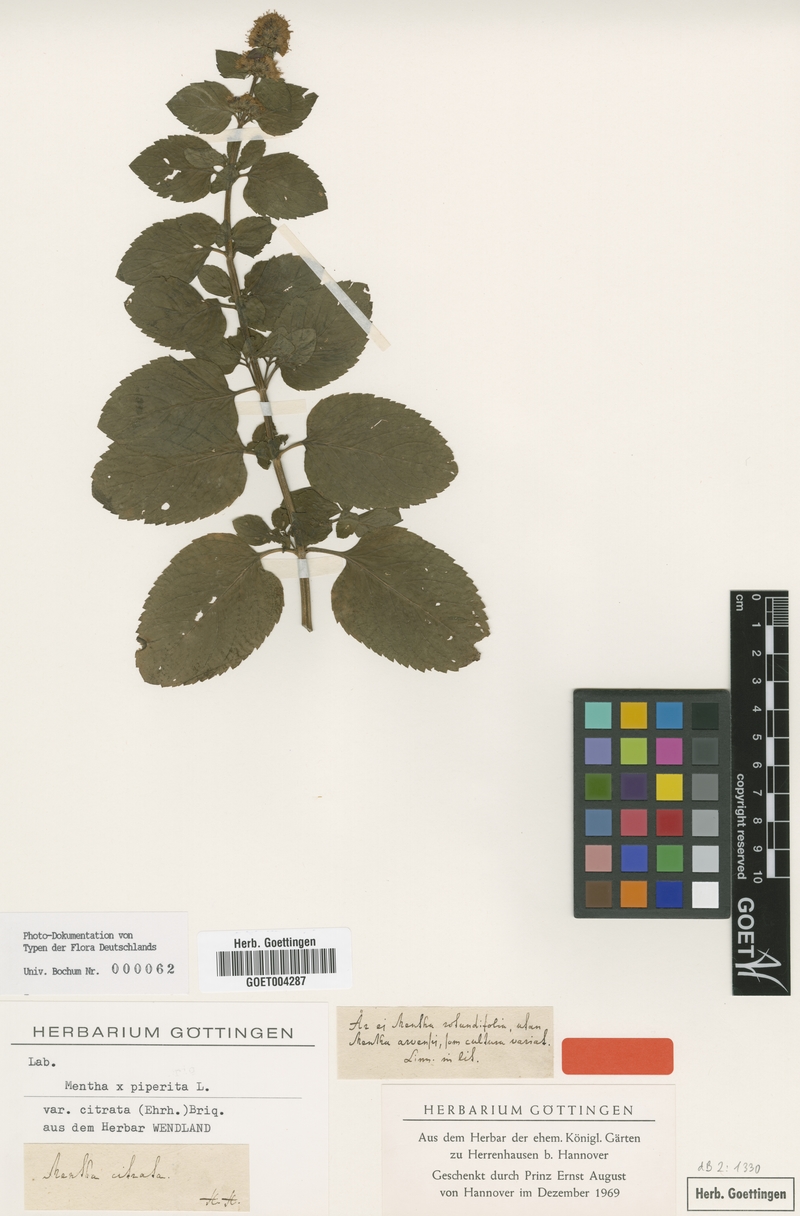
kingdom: Plantae
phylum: Tracheophyta
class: Magnoliopsida
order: Lamiales
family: Lamiaceae
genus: Mentha
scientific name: Mentha aquatica
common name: Water mint
